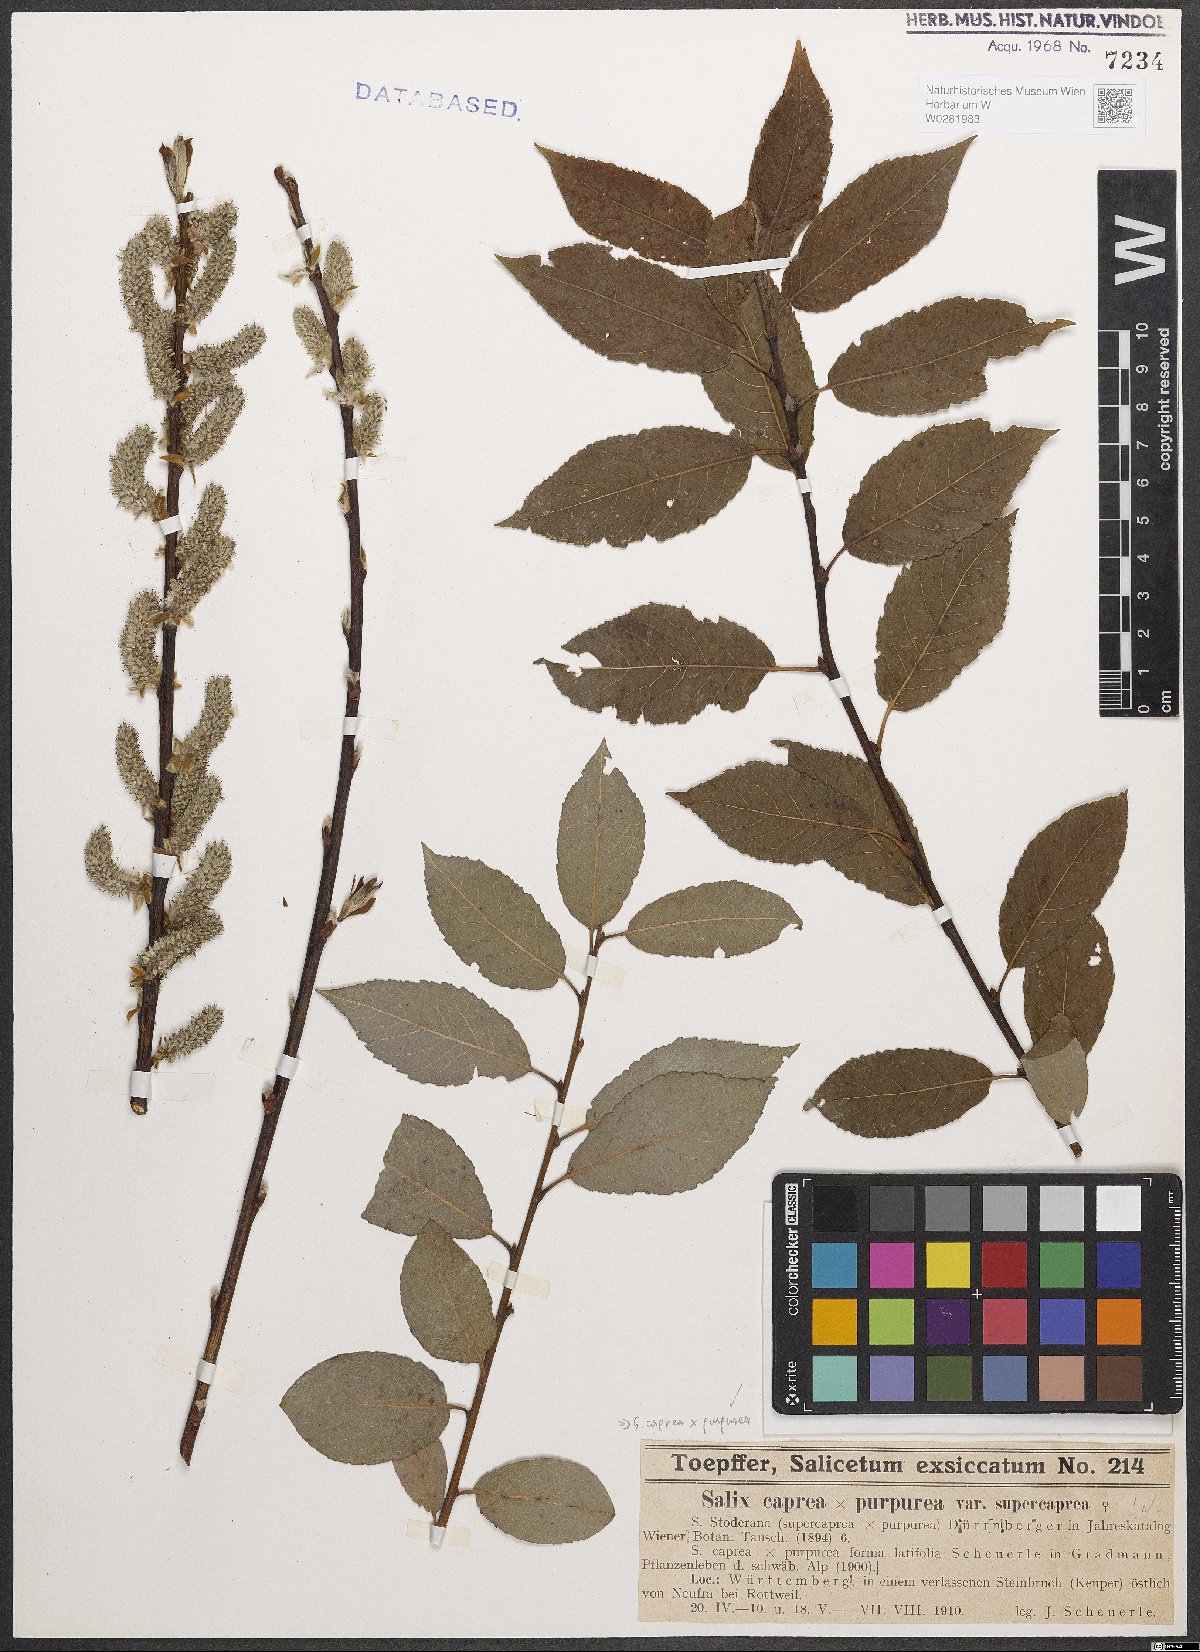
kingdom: Plantae
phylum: Tracheophyta
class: Magnoliopsida
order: Malpighiales
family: Salicaceae
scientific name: Salicaceae
